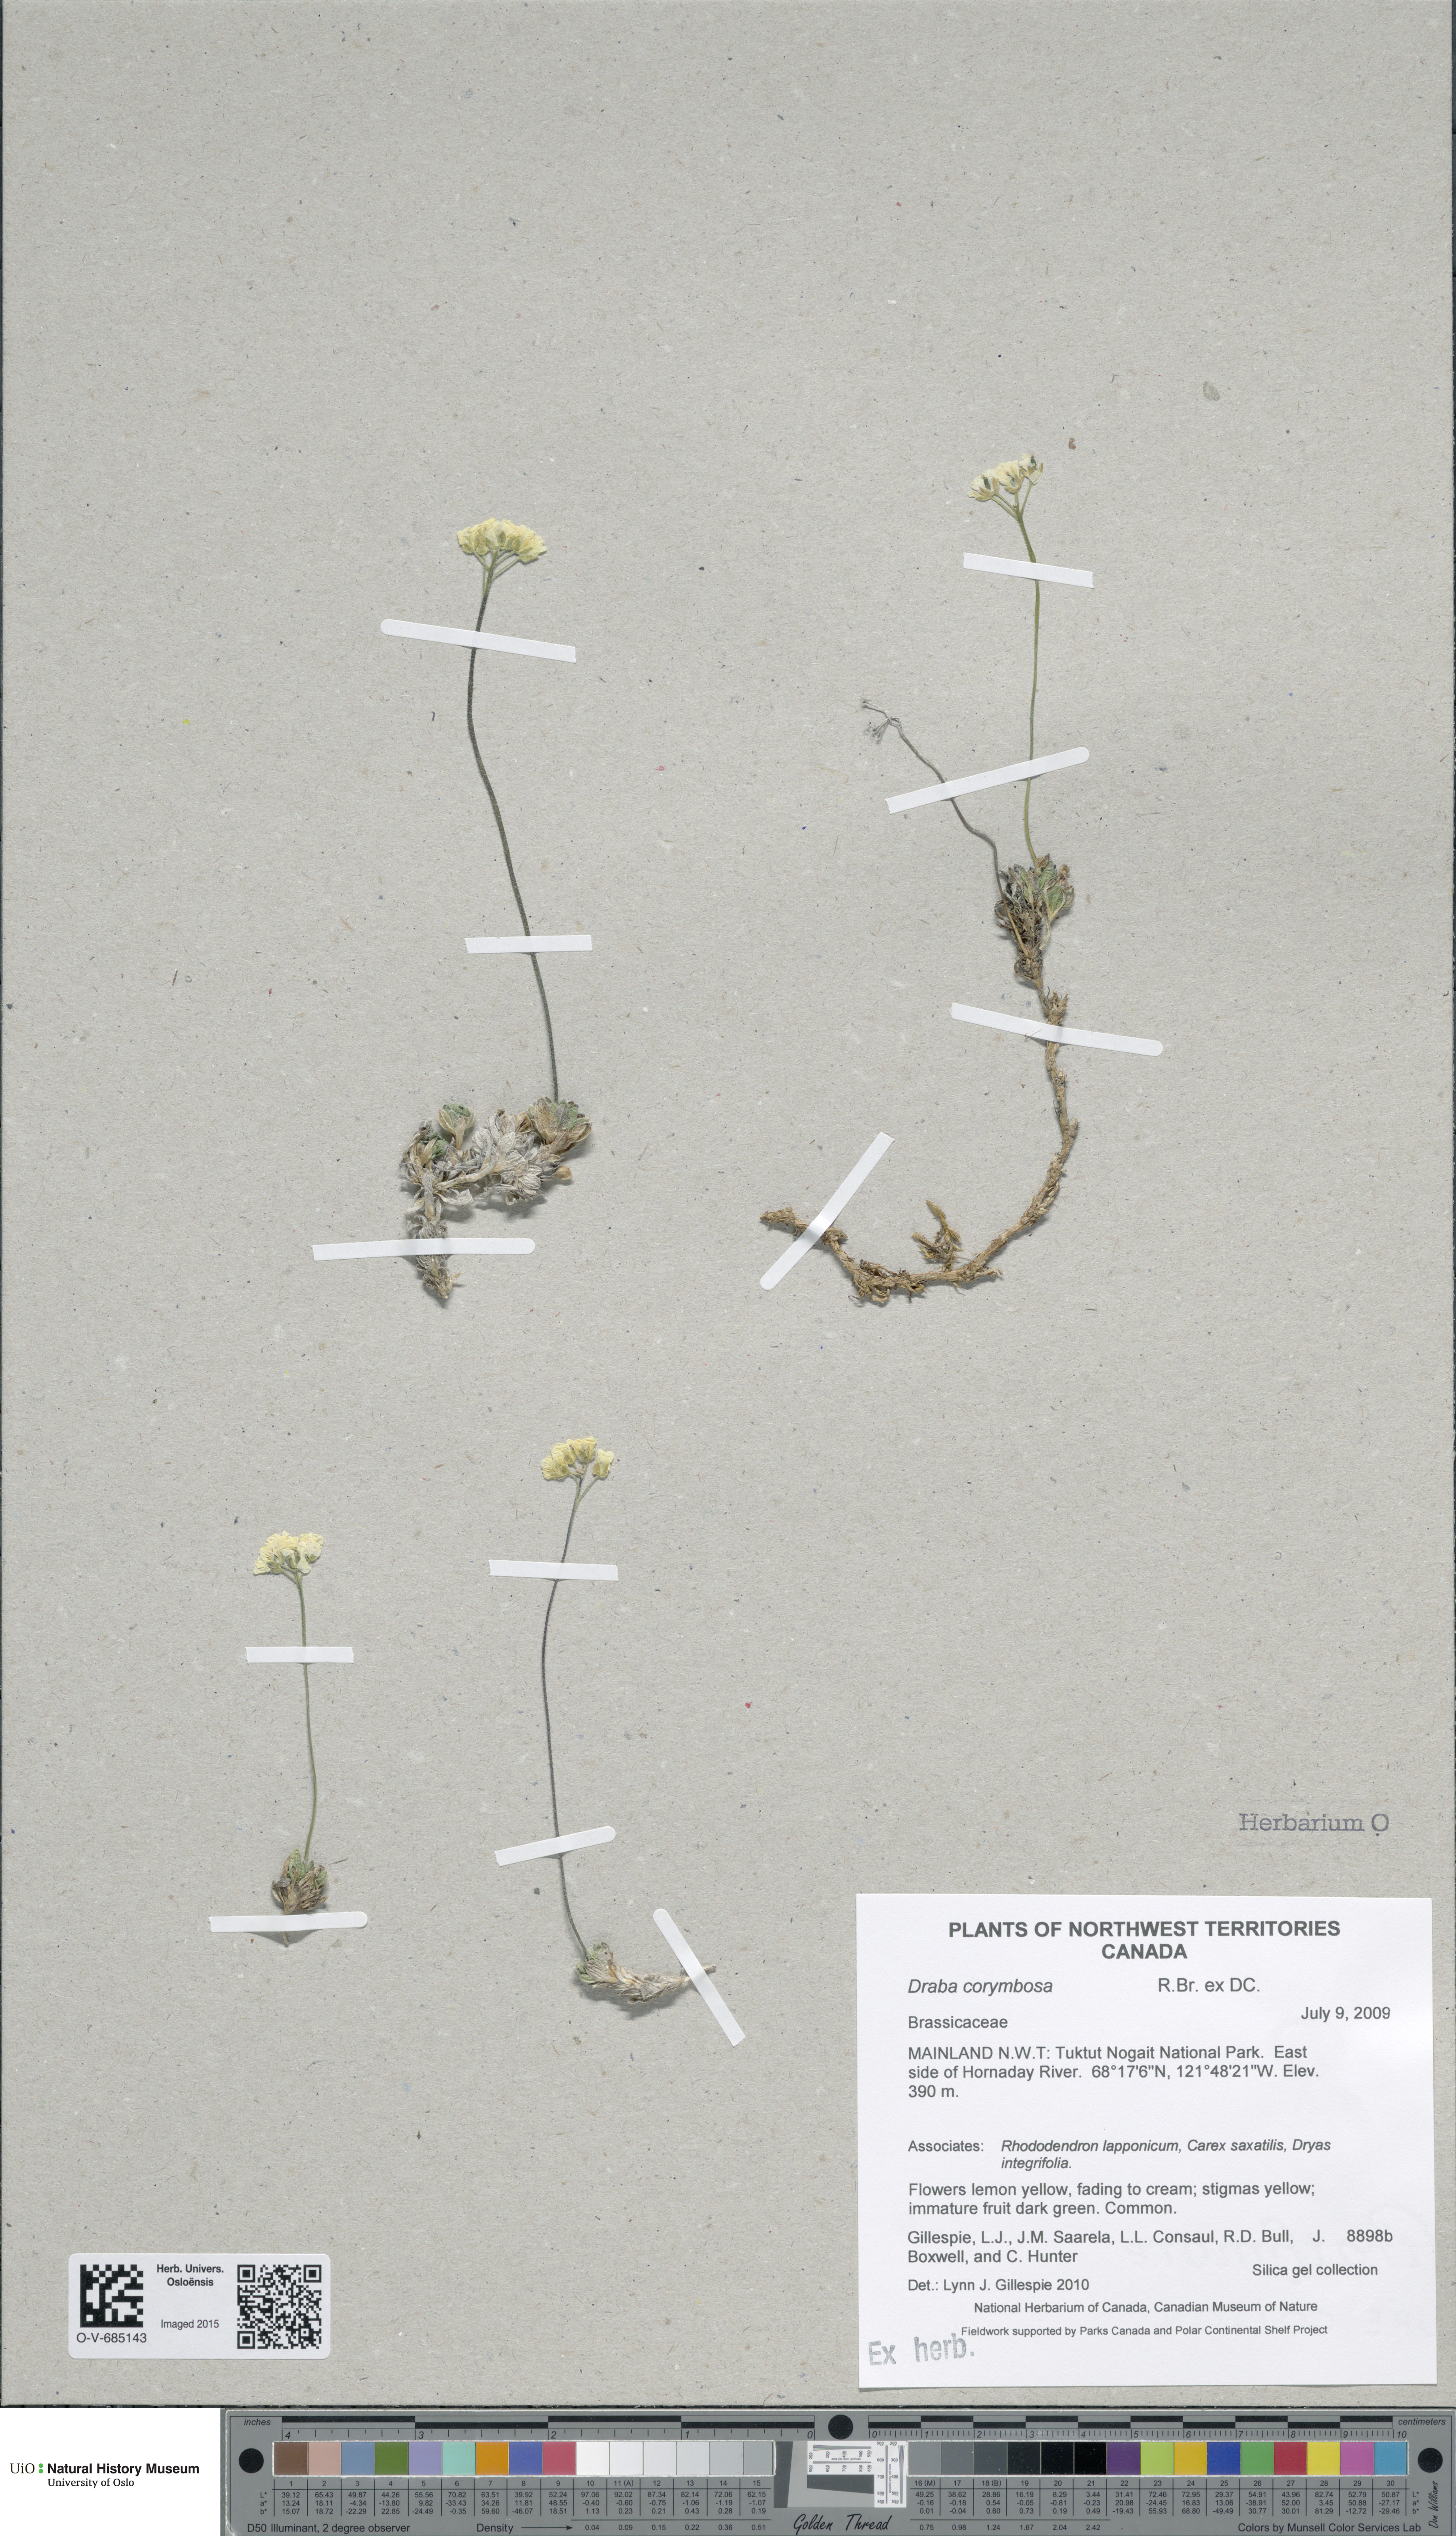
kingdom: Plantae
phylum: Tracheophyta
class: Magnoliopsida
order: Brassicales
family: Brassicaceae
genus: Draba
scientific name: Draba corymbosa
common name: Cushion whitlow-grass
